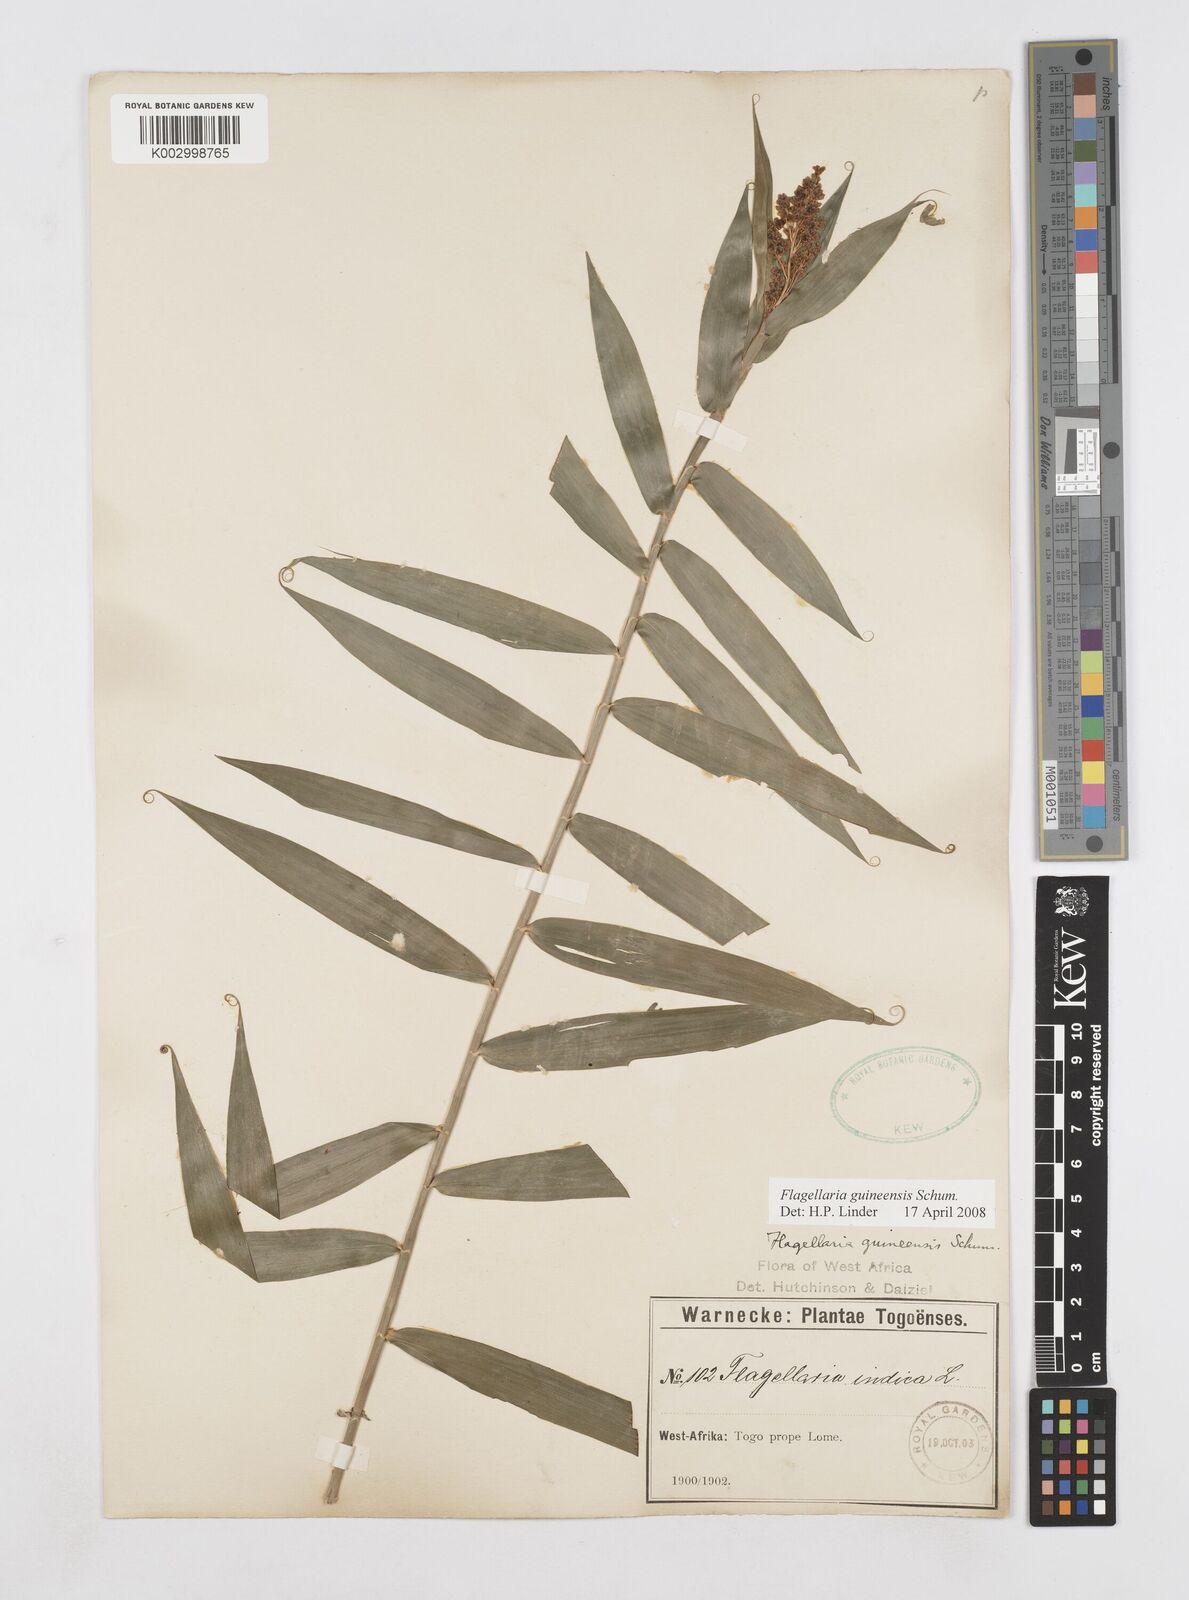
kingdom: Plantae
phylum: Tracheophyta
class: Liliopsida
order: Poales
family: Flagellariaceae
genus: Flagellaria
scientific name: Flagellaria guineensis
